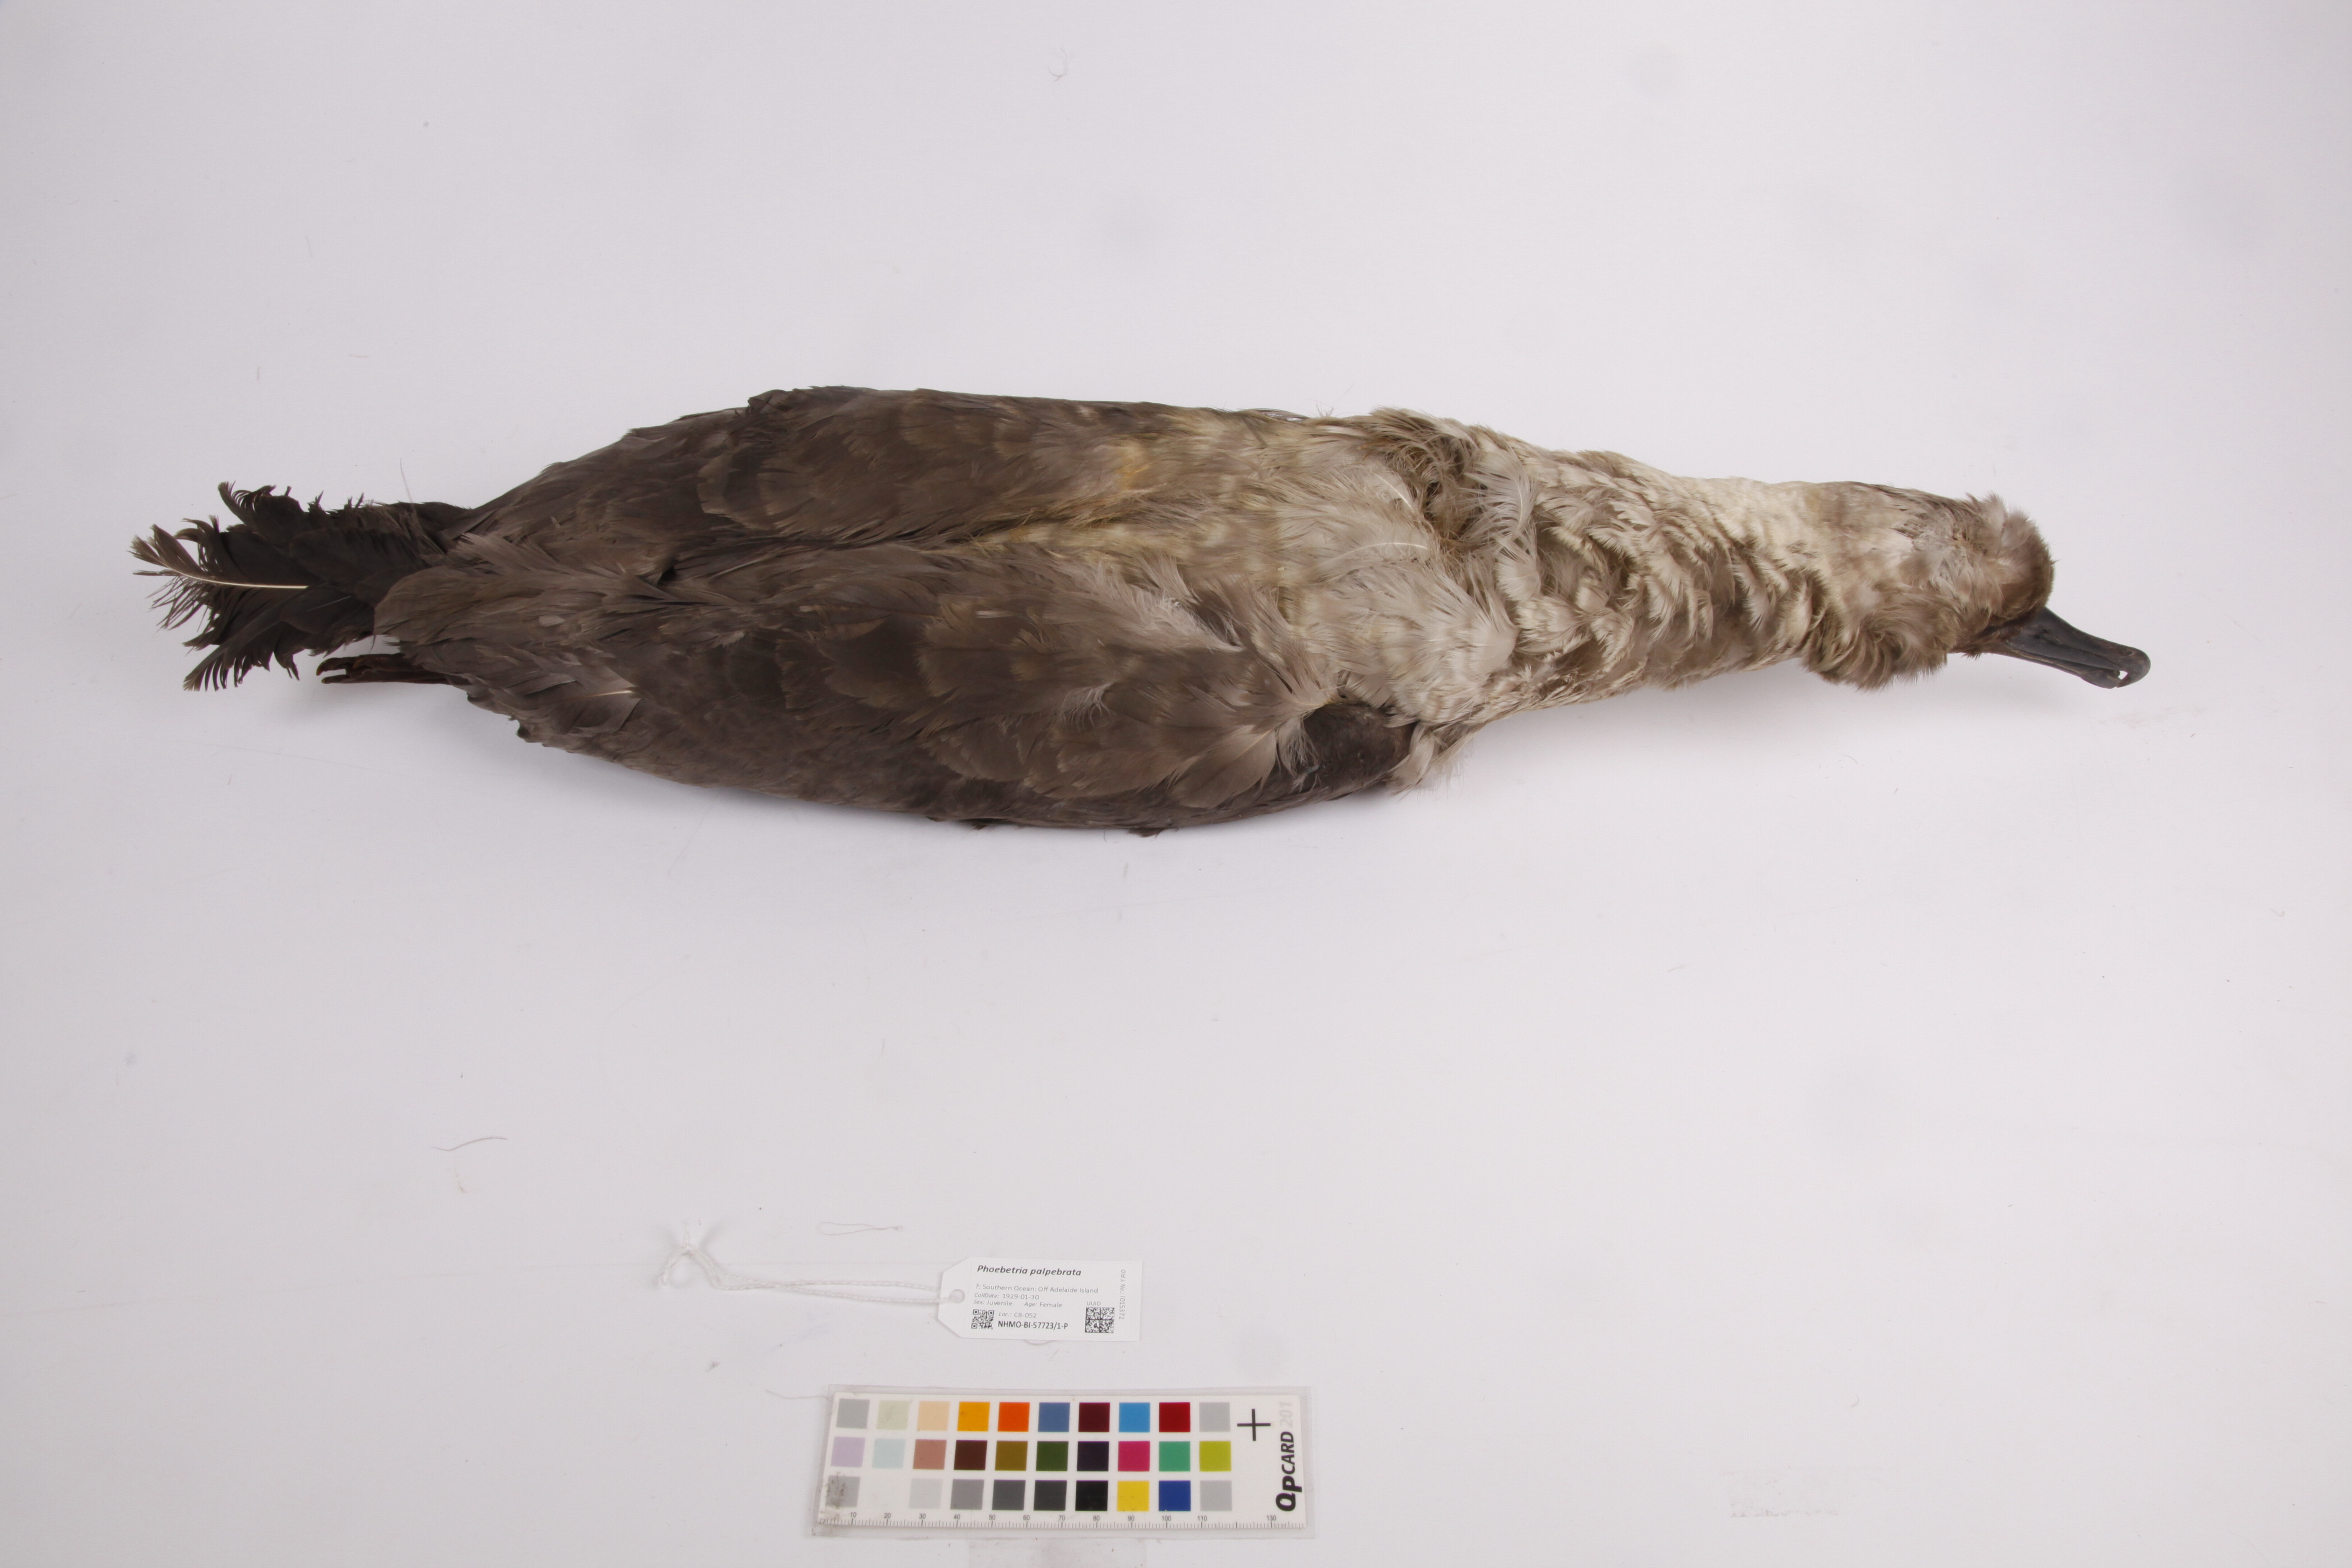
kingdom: Animalia
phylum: Chordata
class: Aves
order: Procellariiformes
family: Diomedeidae
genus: Phoebetria
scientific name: Phoebetria palpebrata
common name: Light-mantled albatross
